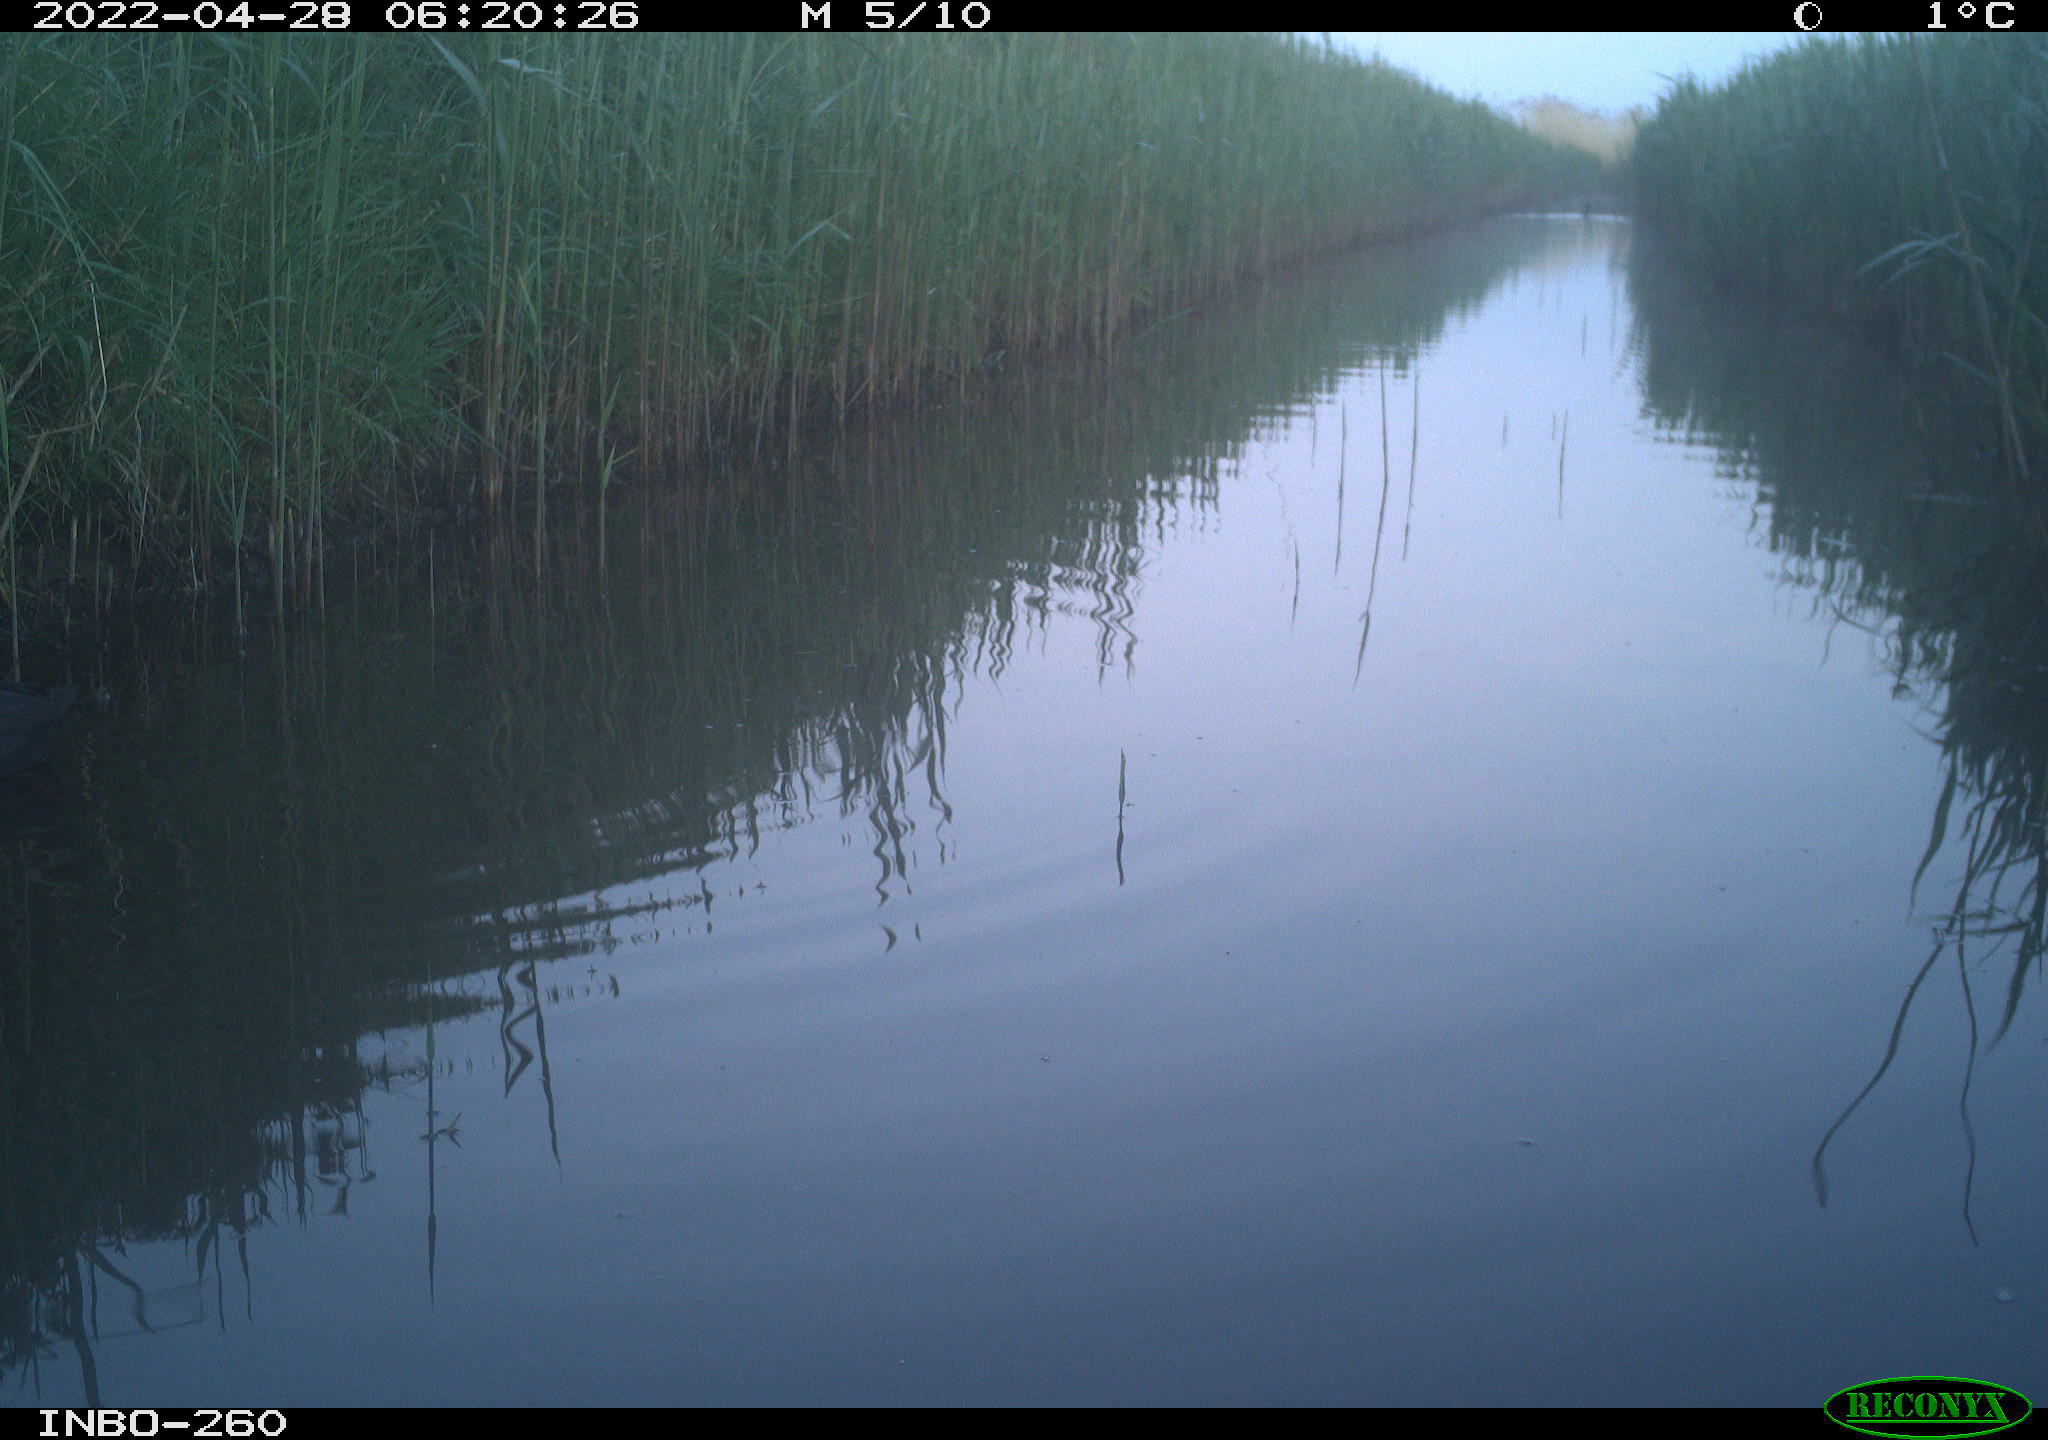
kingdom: Animalia
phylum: Chordata
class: Aves
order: Gruiformes
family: Rallidae
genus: Fulica
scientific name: Fulica atra
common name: Eurasian coot
